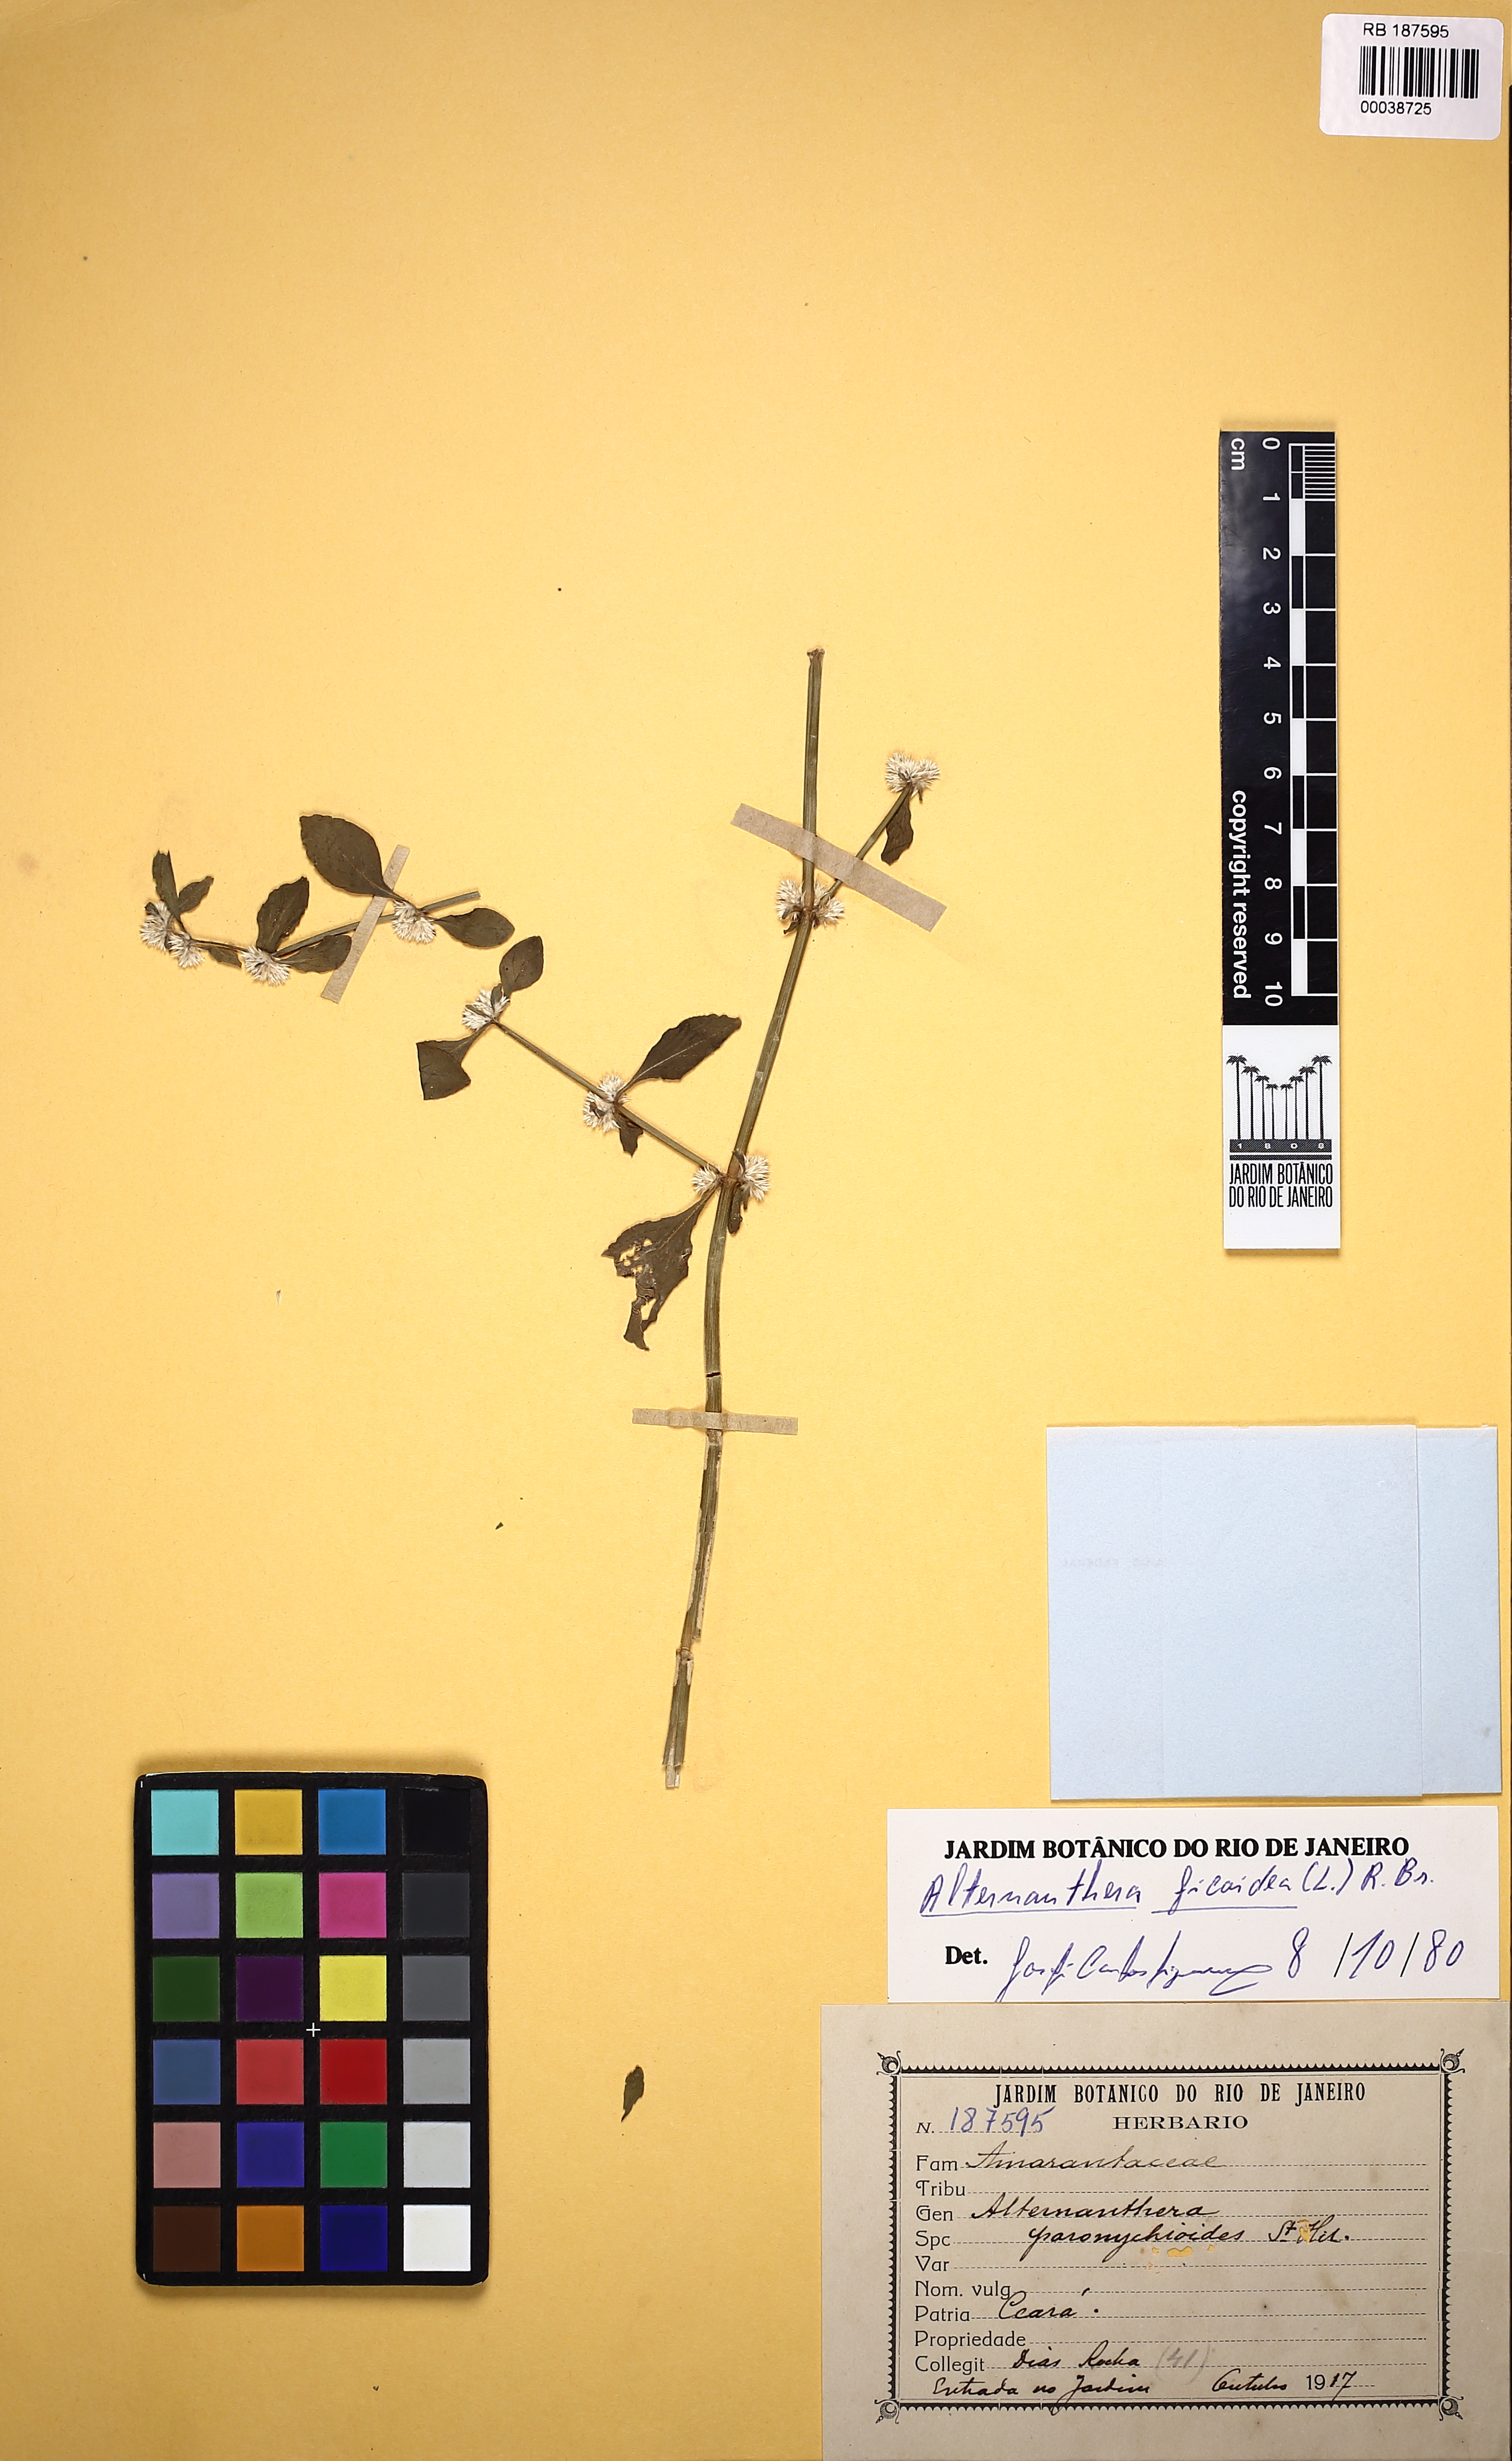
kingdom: Plantae
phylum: Tracheophyta
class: Magnoliopsida
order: Caryophyllales
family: Amaranthaceae
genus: Alternanthera
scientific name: Alternanthera ficoidea
